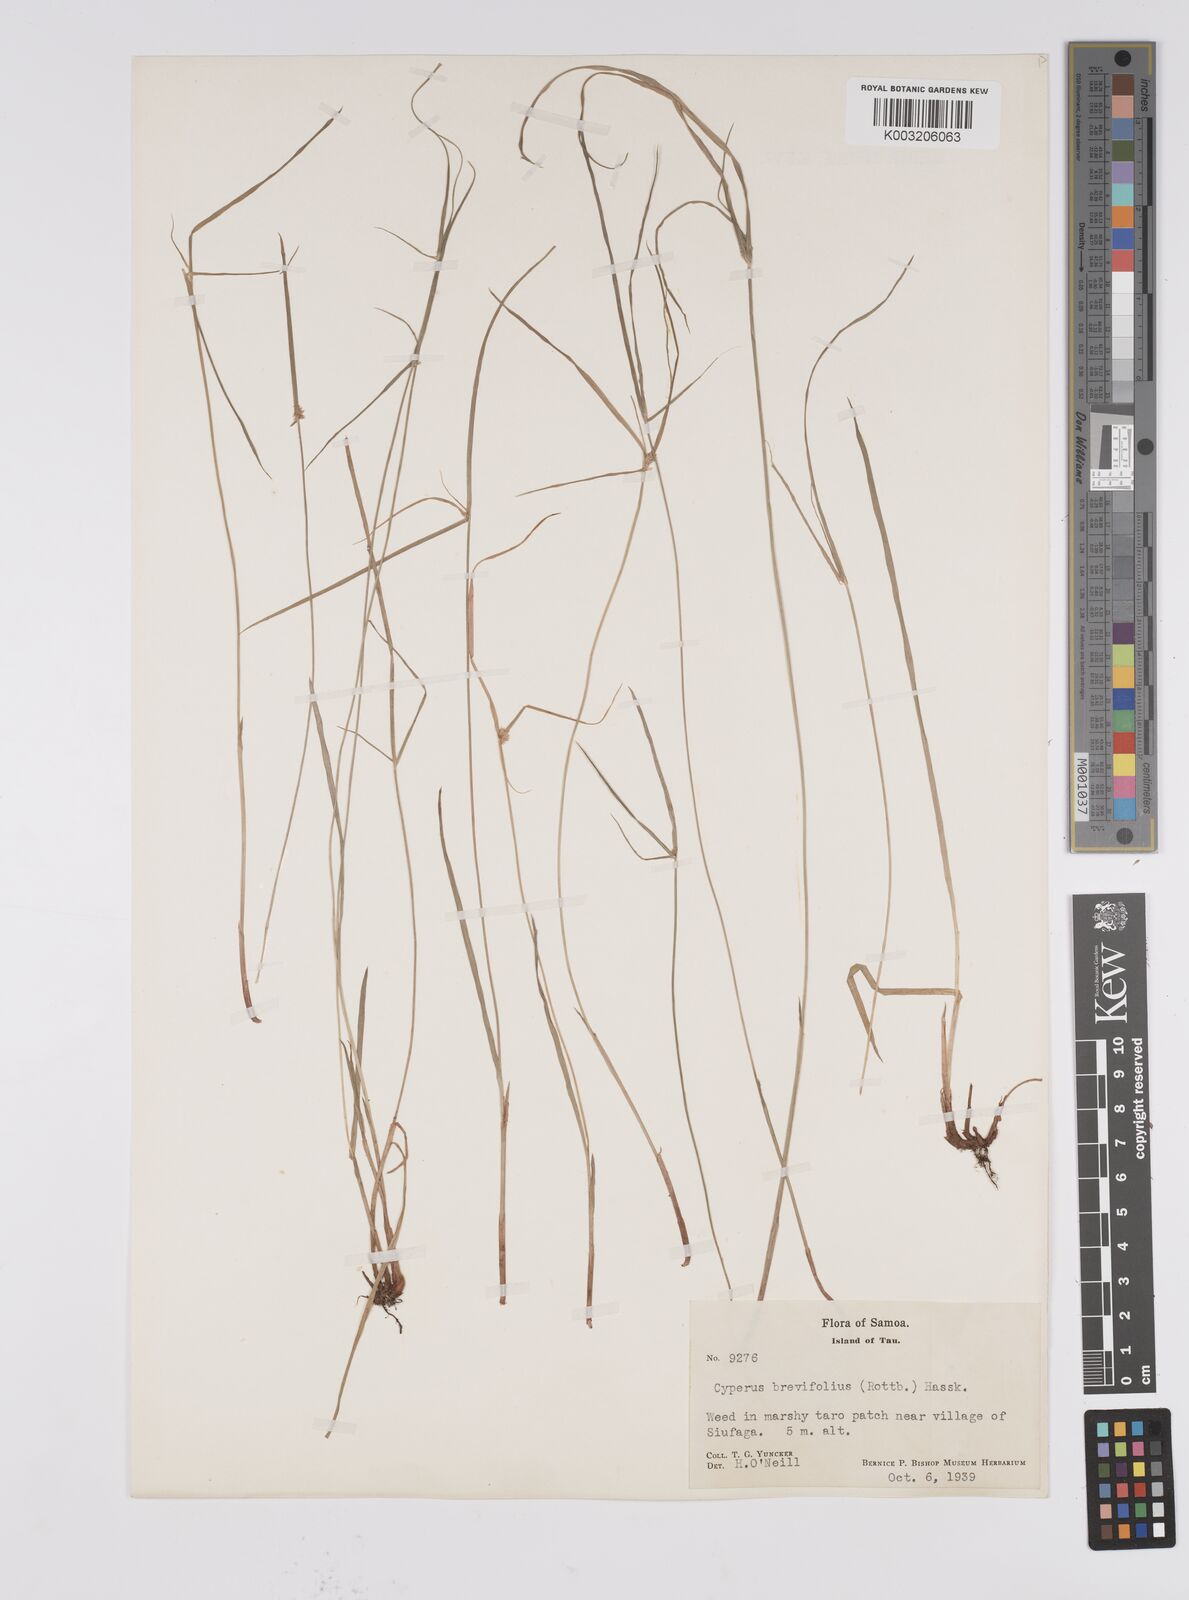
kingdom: Plantae
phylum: Tracheophyta
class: Liliopsida
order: Poales
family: Cyperaceae
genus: Cyperus
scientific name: Cyperus brevifolius
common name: Globe kyllinga
